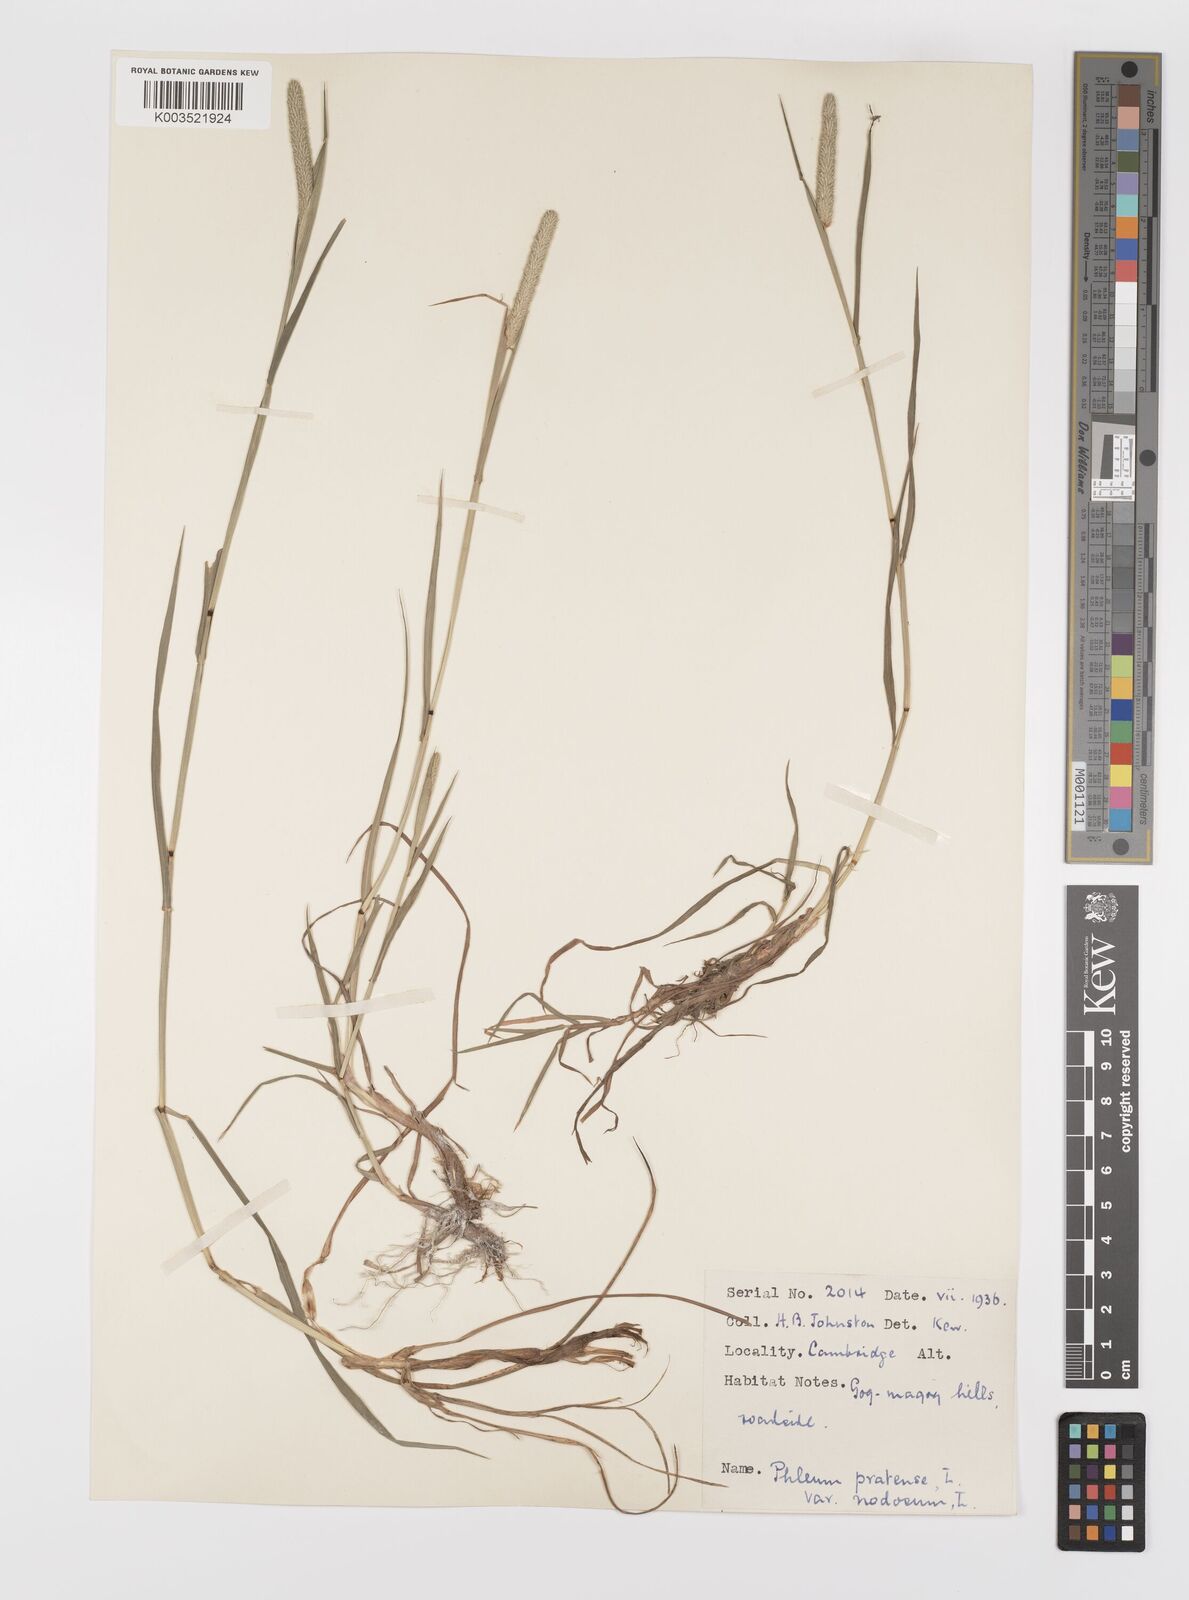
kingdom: Plantae
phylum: Tracheophyta
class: Liliopsida
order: Poales
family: Poaceae
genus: Phleum
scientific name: Phleum bertolonii
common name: Smaller cat's-tail
